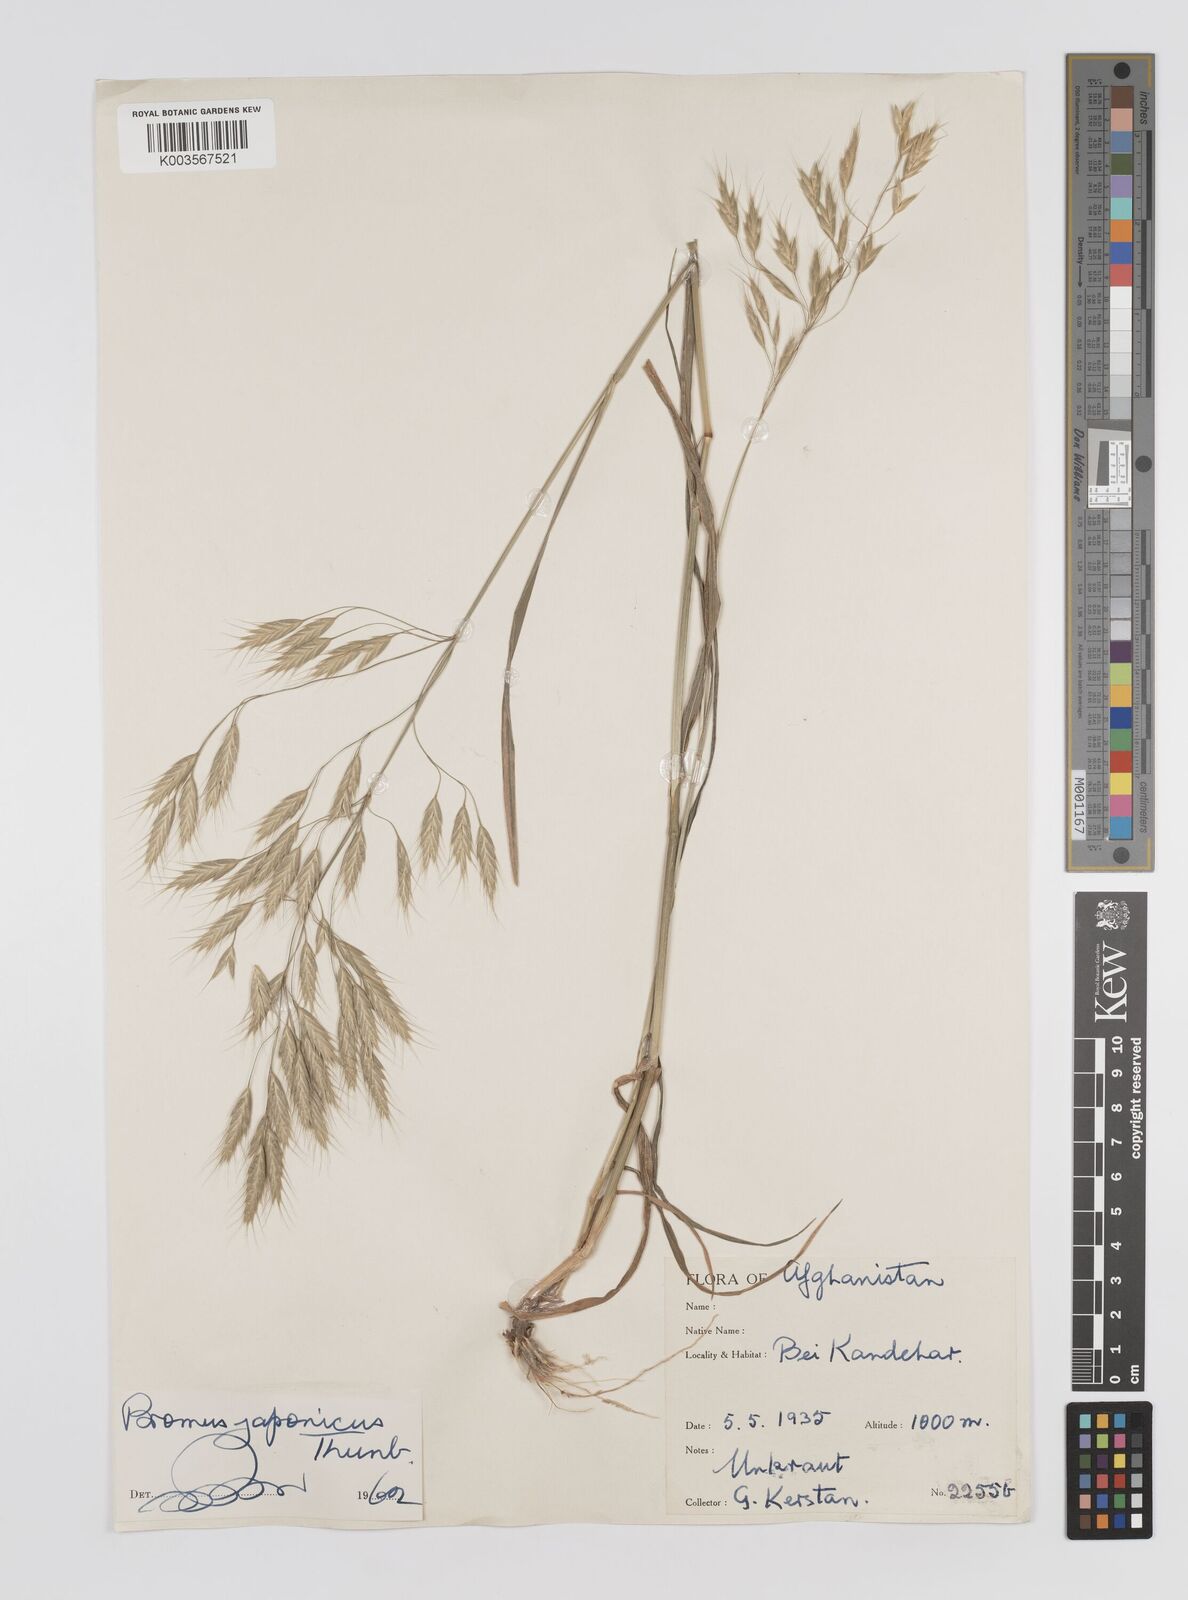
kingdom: Plantae
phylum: Tracheophyta
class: Liliopsida
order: Poales
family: Poaceae
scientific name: Poaceae
